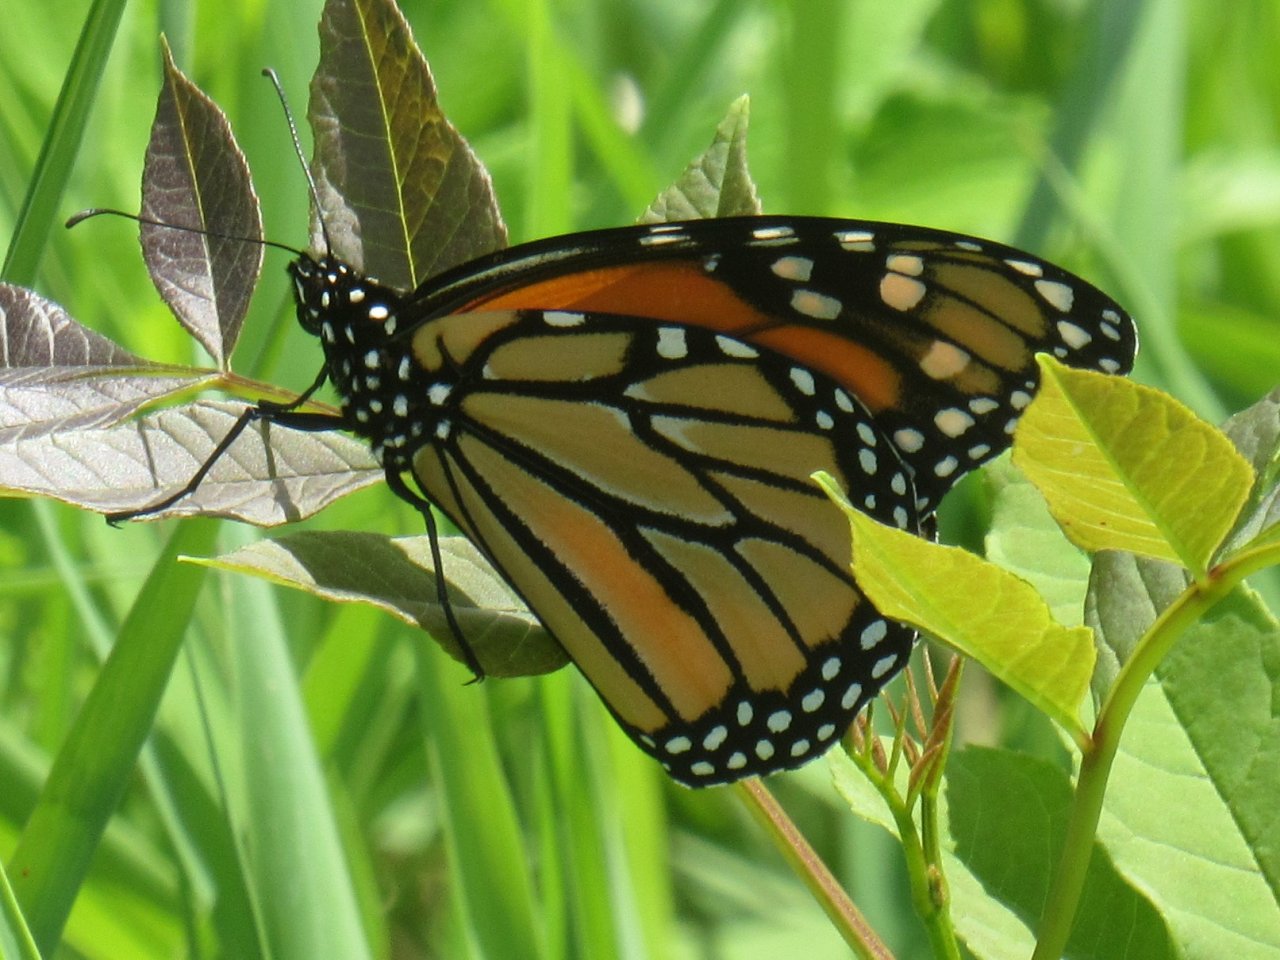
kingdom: Animalia
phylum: Arthropoda
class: Insecta
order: Lepidoptera
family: Nymphalidae
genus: Danaus
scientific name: Danaus plexippus
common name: Monarch
